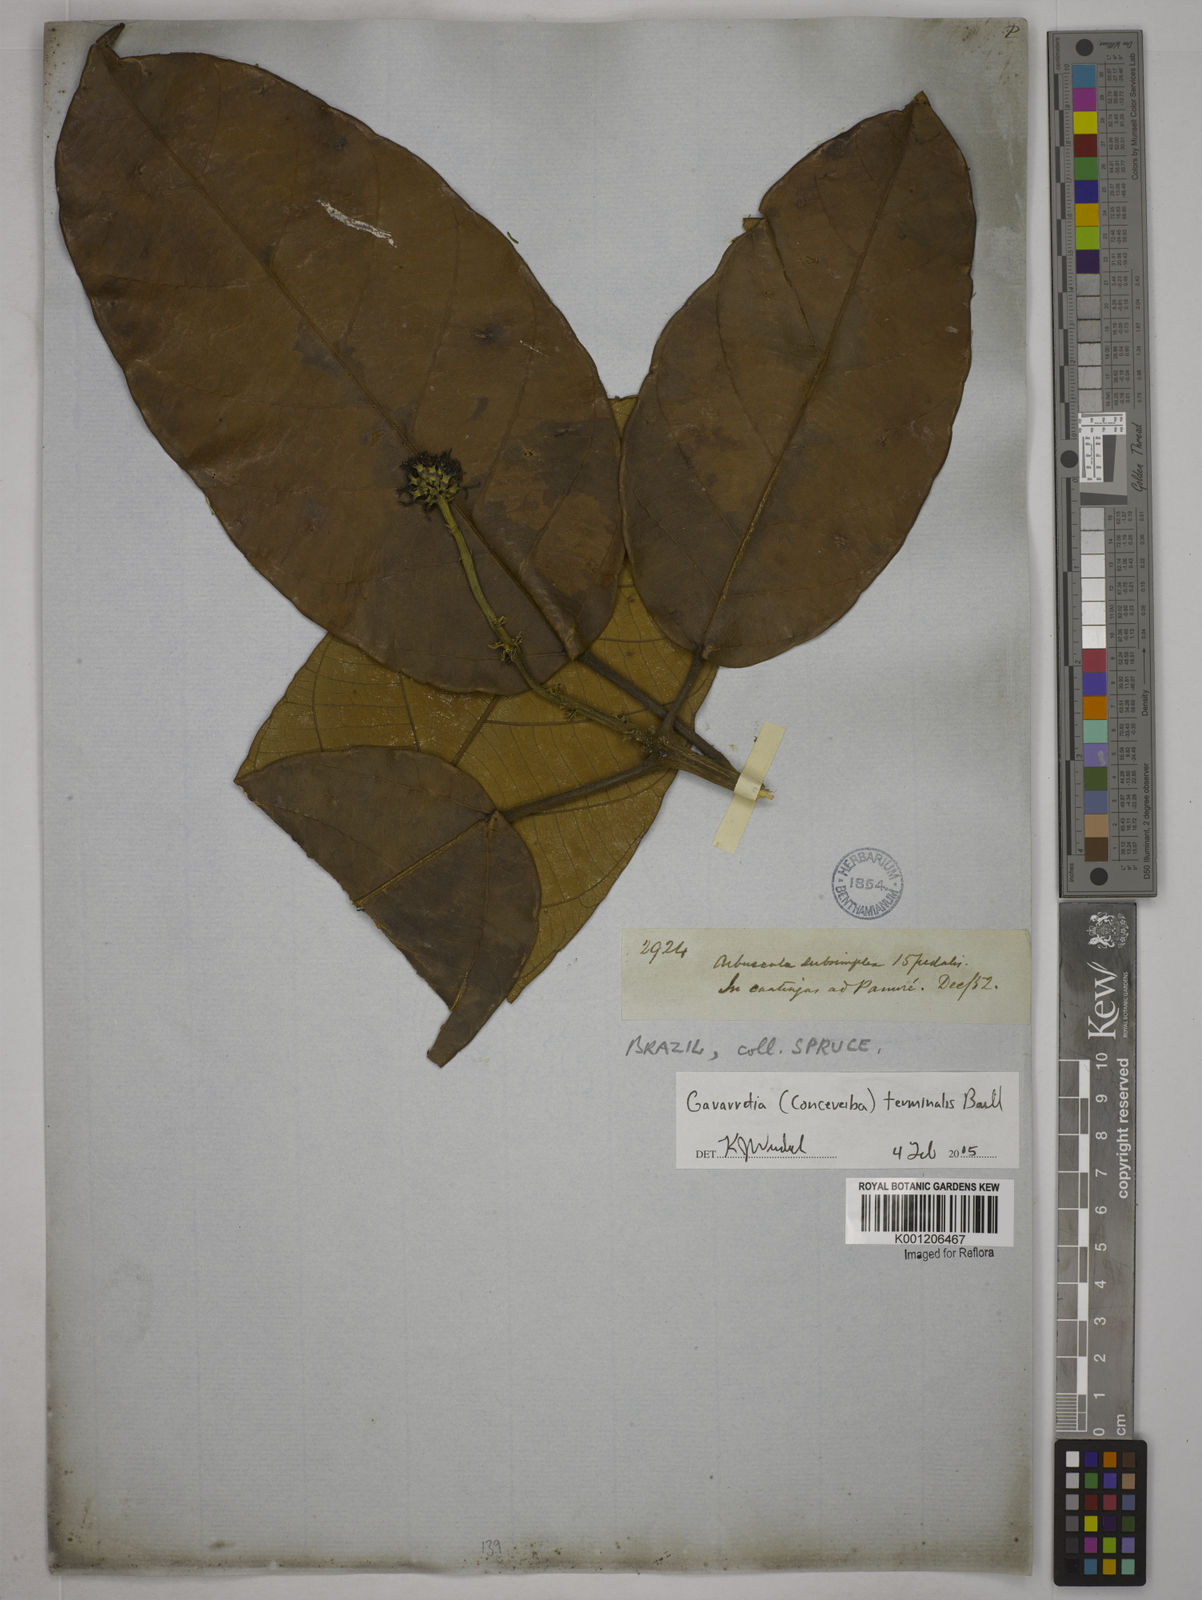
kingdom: Plantae
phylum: Tracheophyta
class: Magnoliopsida
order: Malpighiales
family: Euphorbiaceae
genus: Conceveiba
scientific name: Conceveiba
